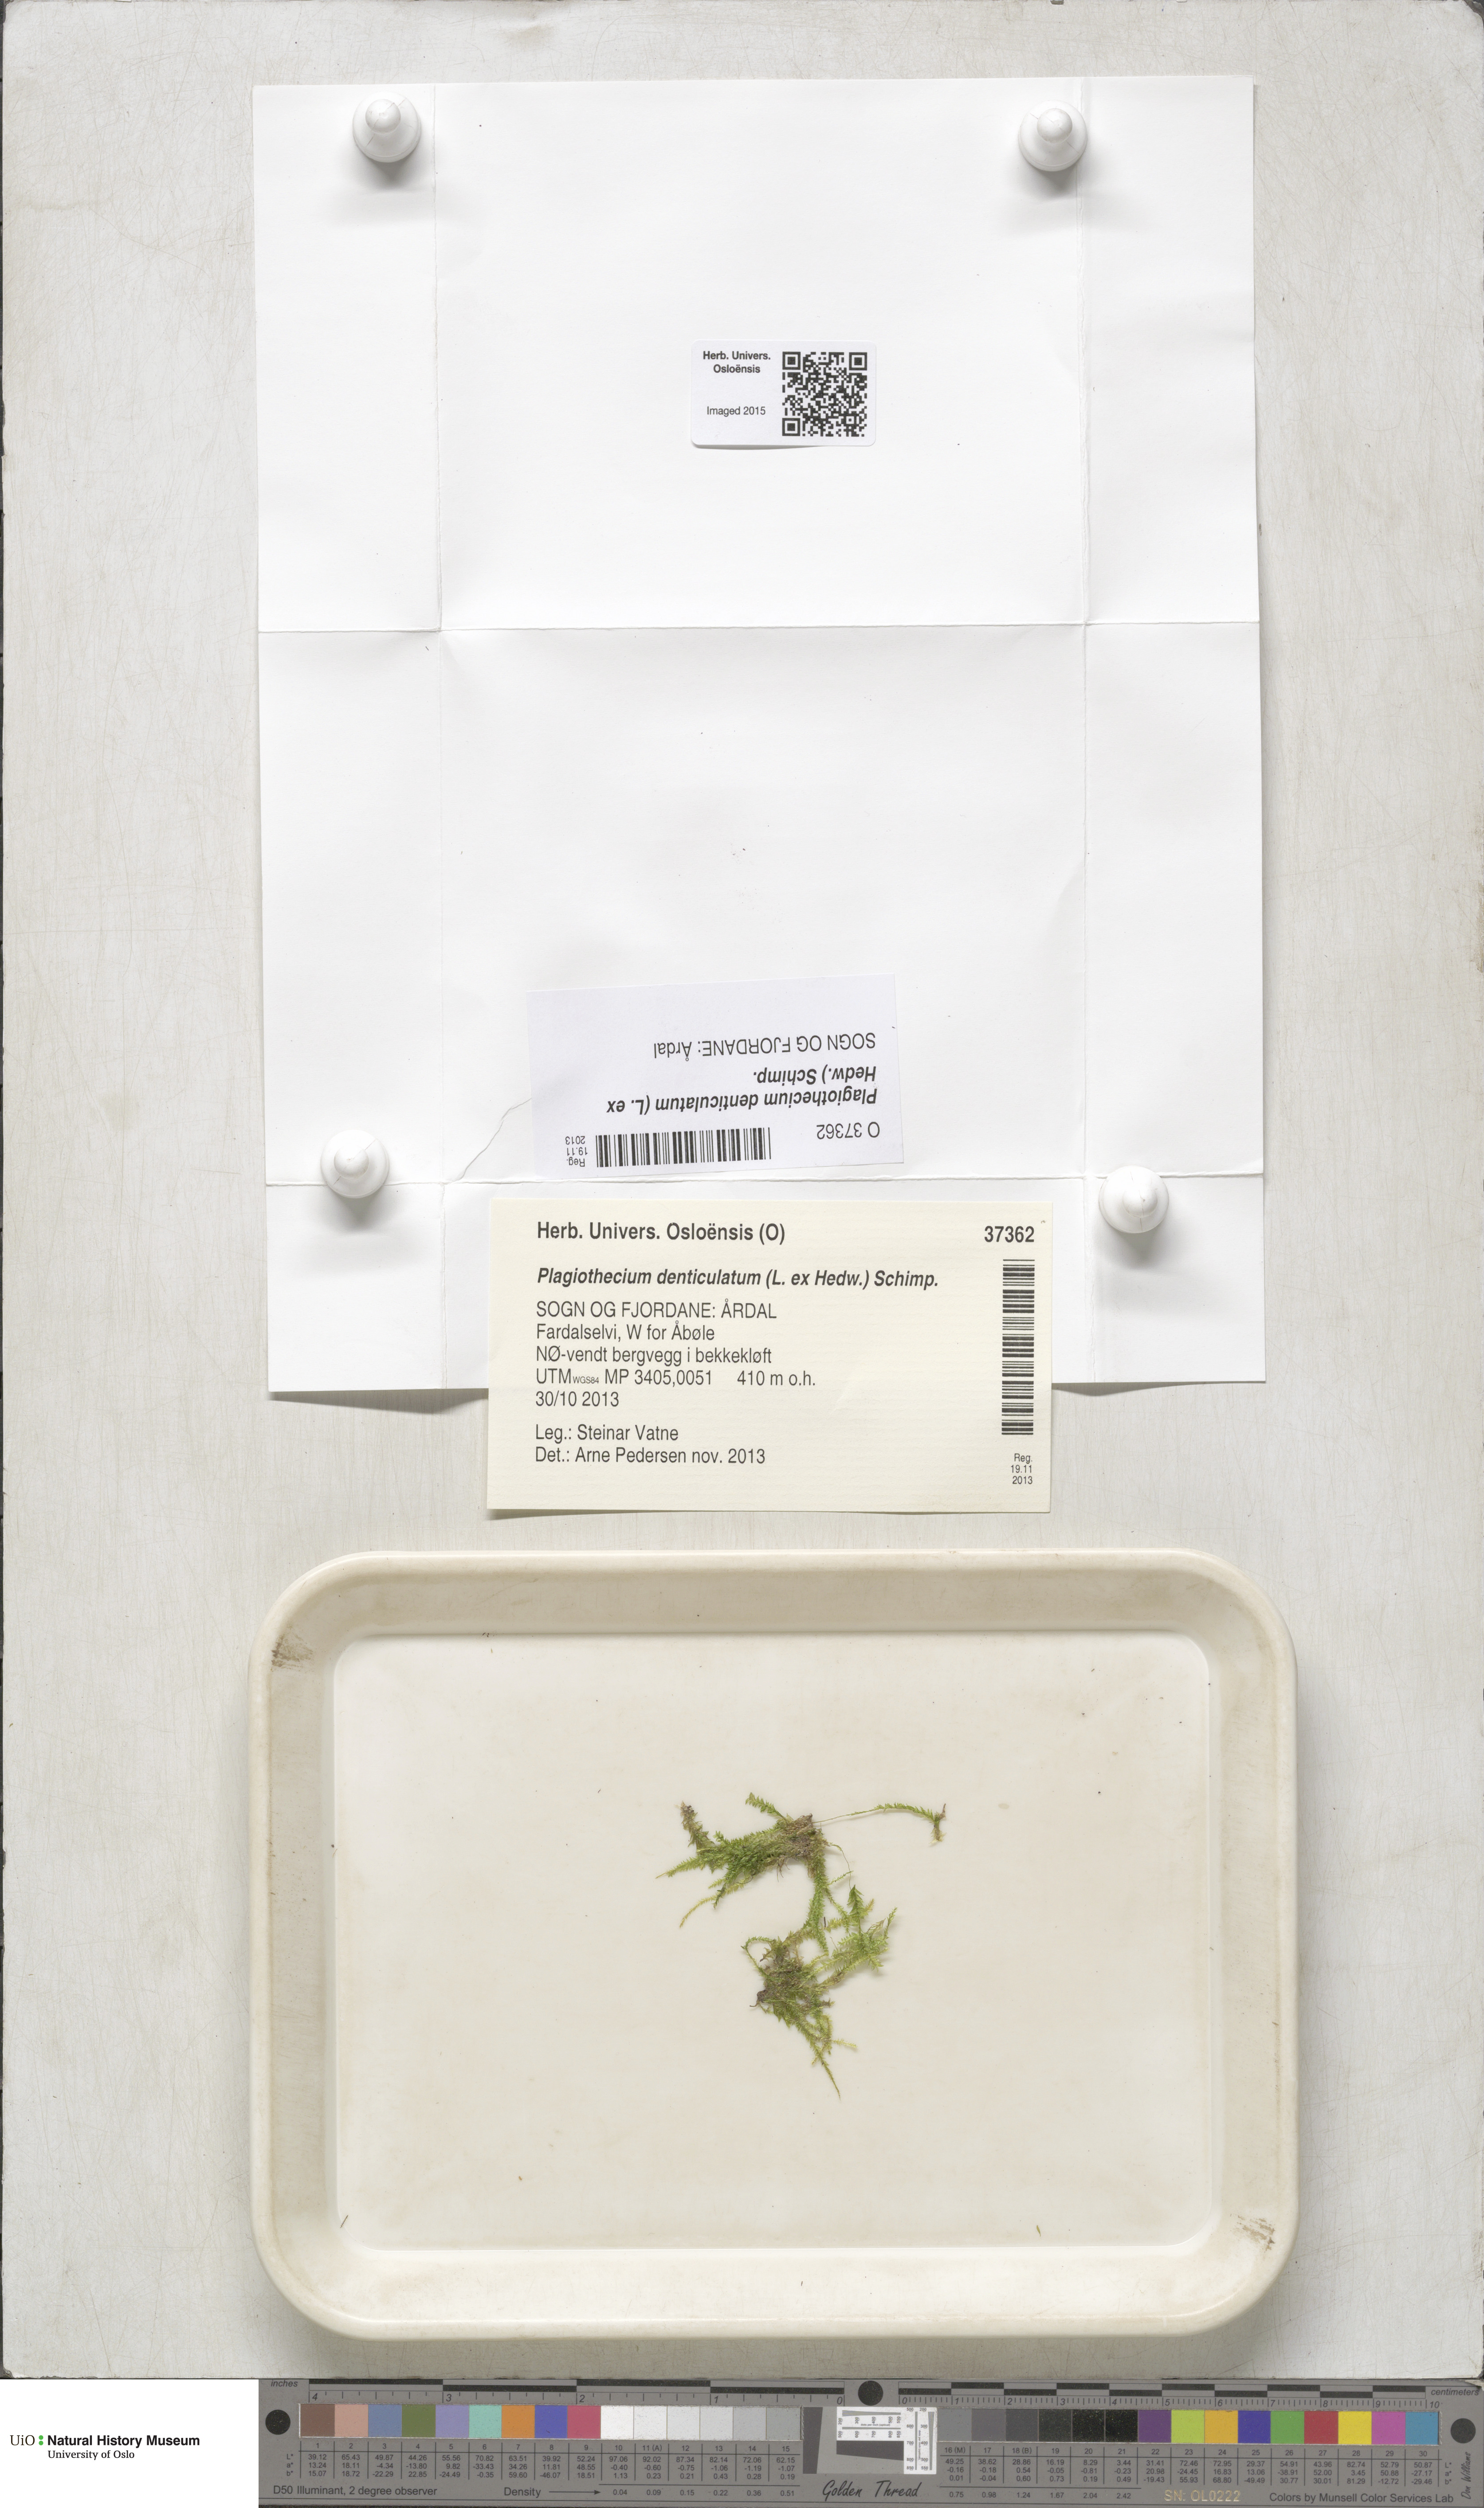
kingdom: Plantae
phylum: Bryophyta
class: Bryopsida
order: Hypnales
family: Plagiotheciaceae
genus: Plagiothecium
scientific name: Plagiothecium denticulatum
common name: Dented silk moss
